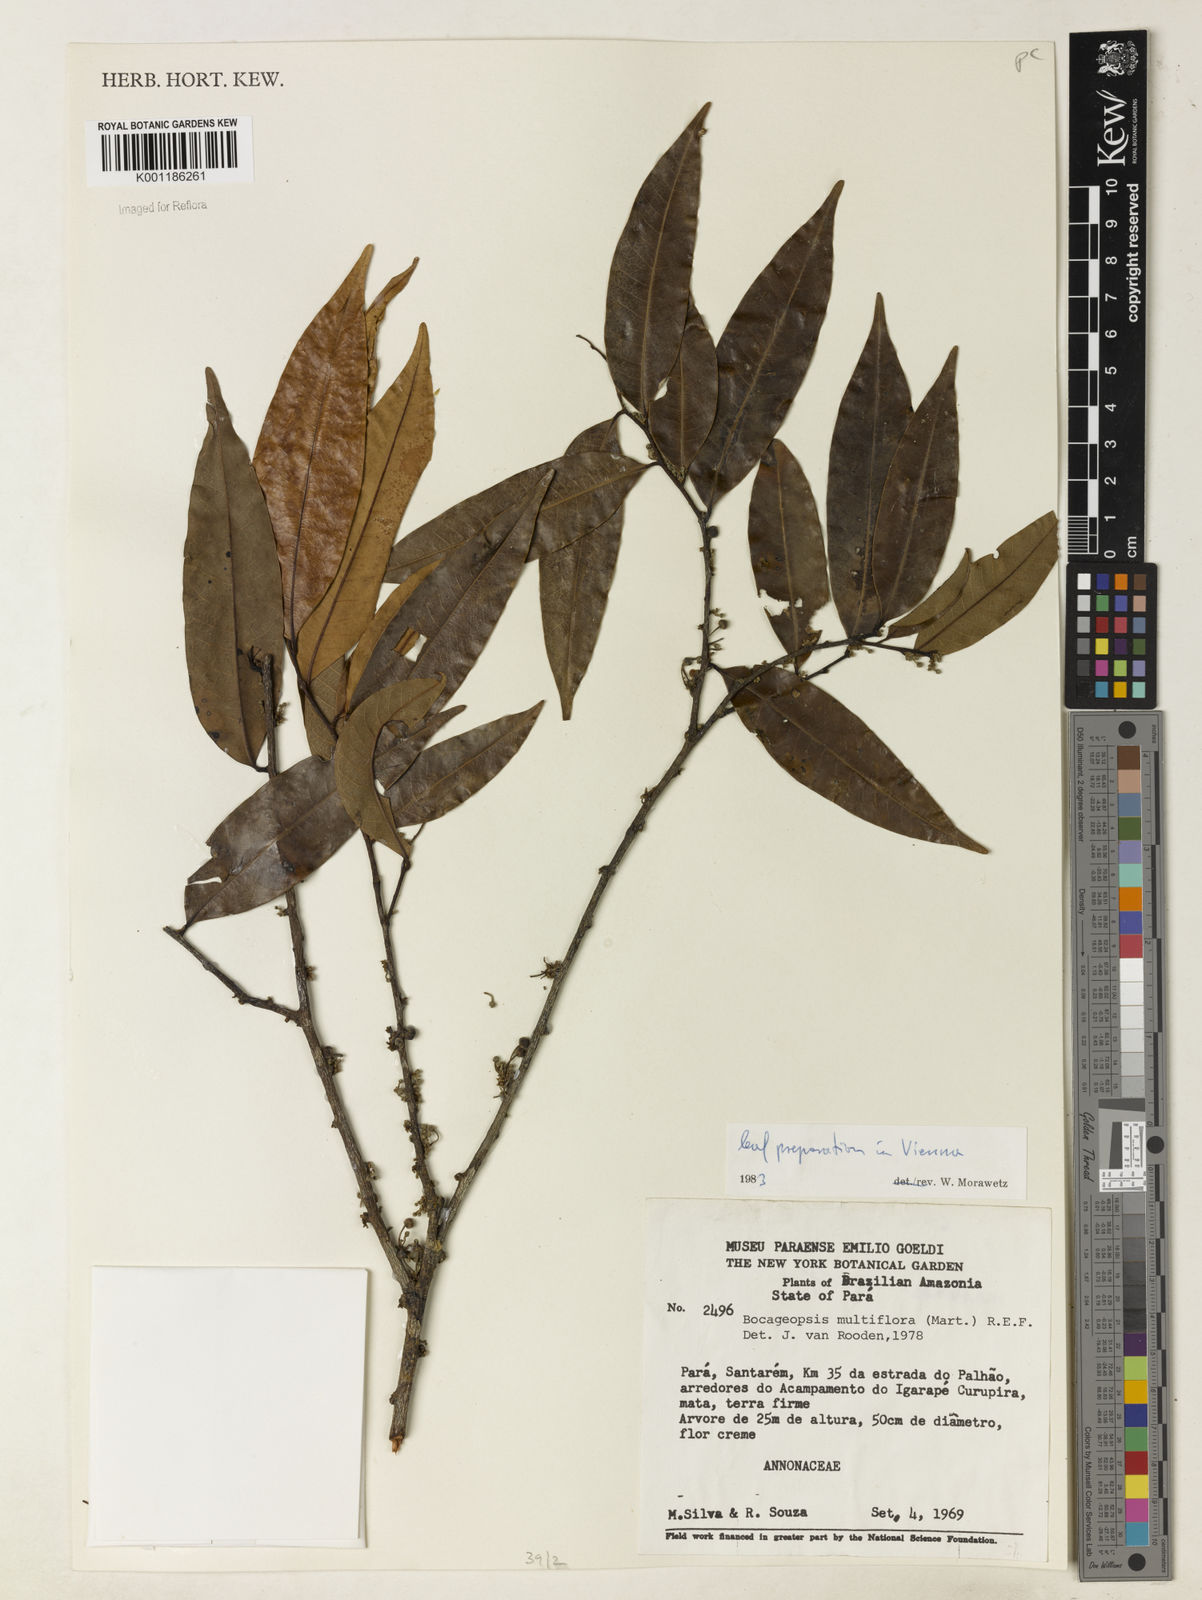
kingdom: Plantae
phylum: Tracheophyta
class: Magnoliopsida
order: Magnoliales
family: Annonaceae
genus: Bocageopsis
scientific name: Bocageopsis multiflora
